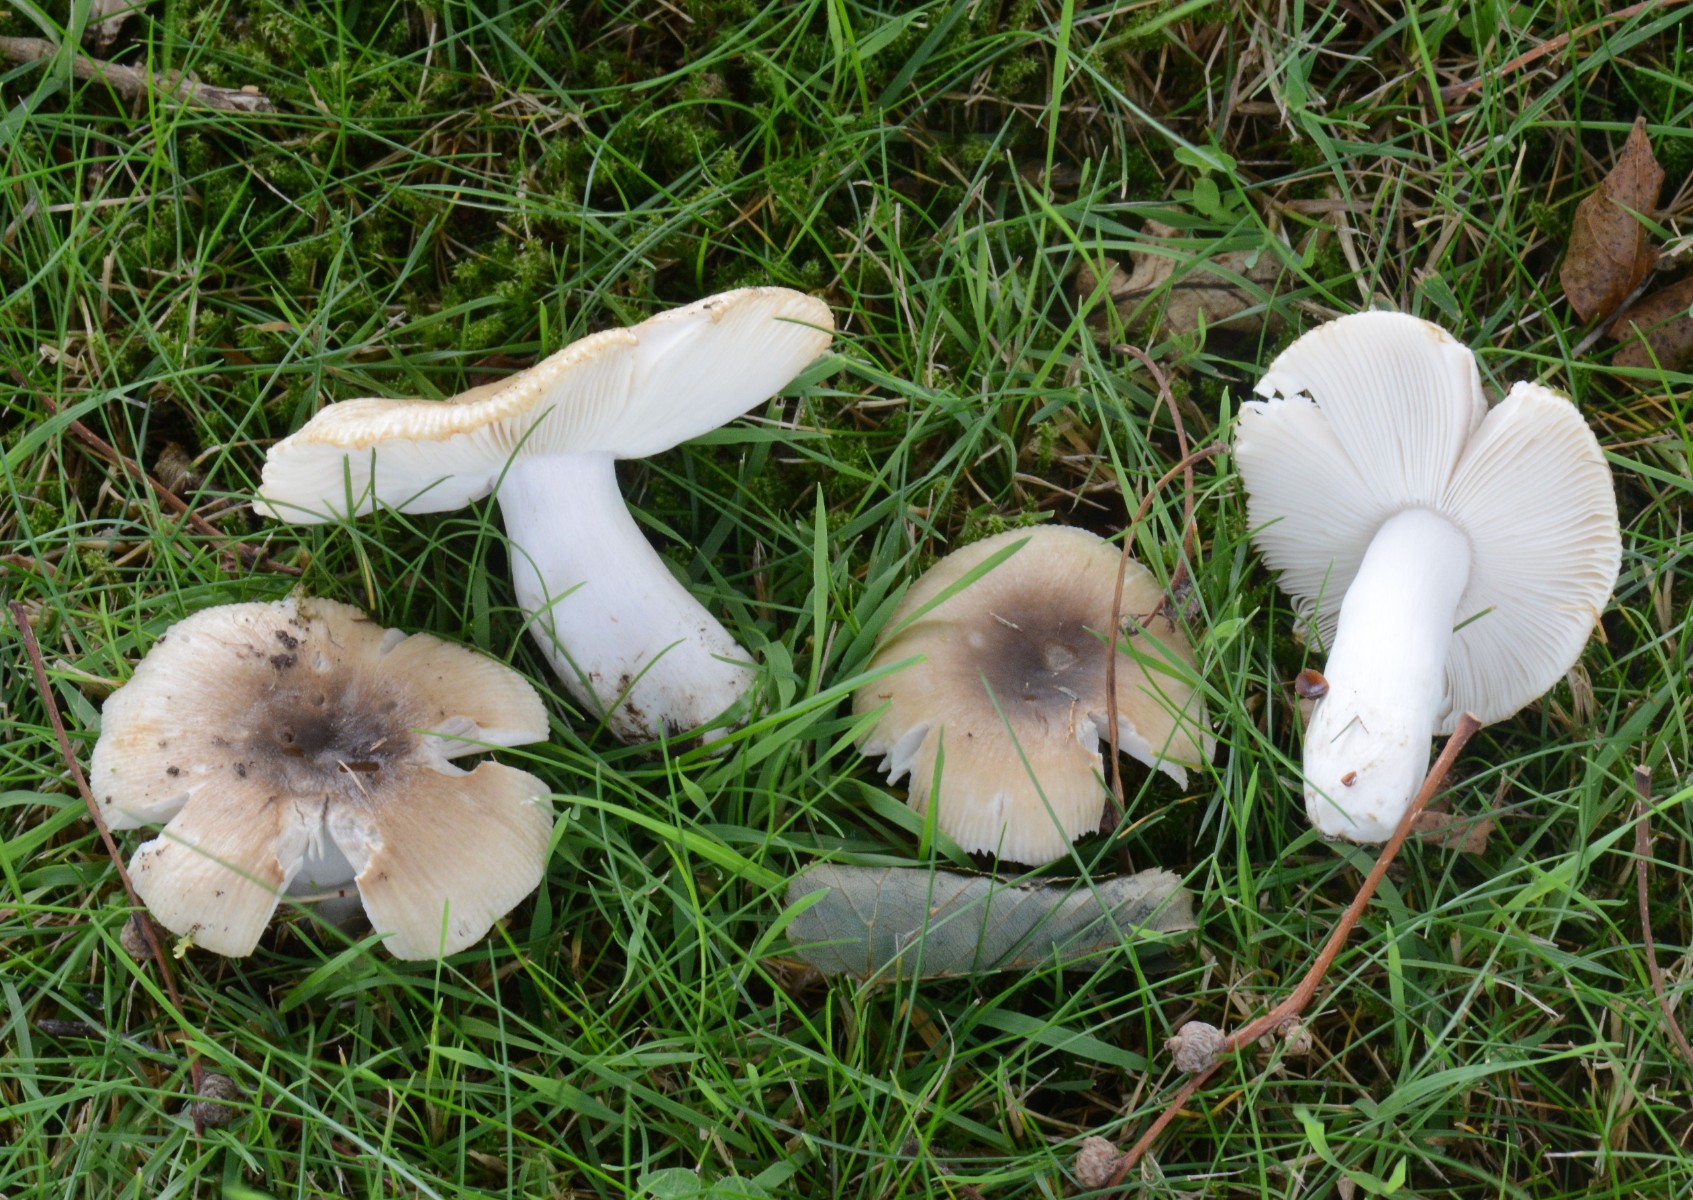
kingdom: Fungi
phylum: Basidiomycota
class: Agaricomycetes
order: Russulales
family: Russulaceae
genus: Russula
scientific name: Russula recondita
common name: mild kam-skørhat
